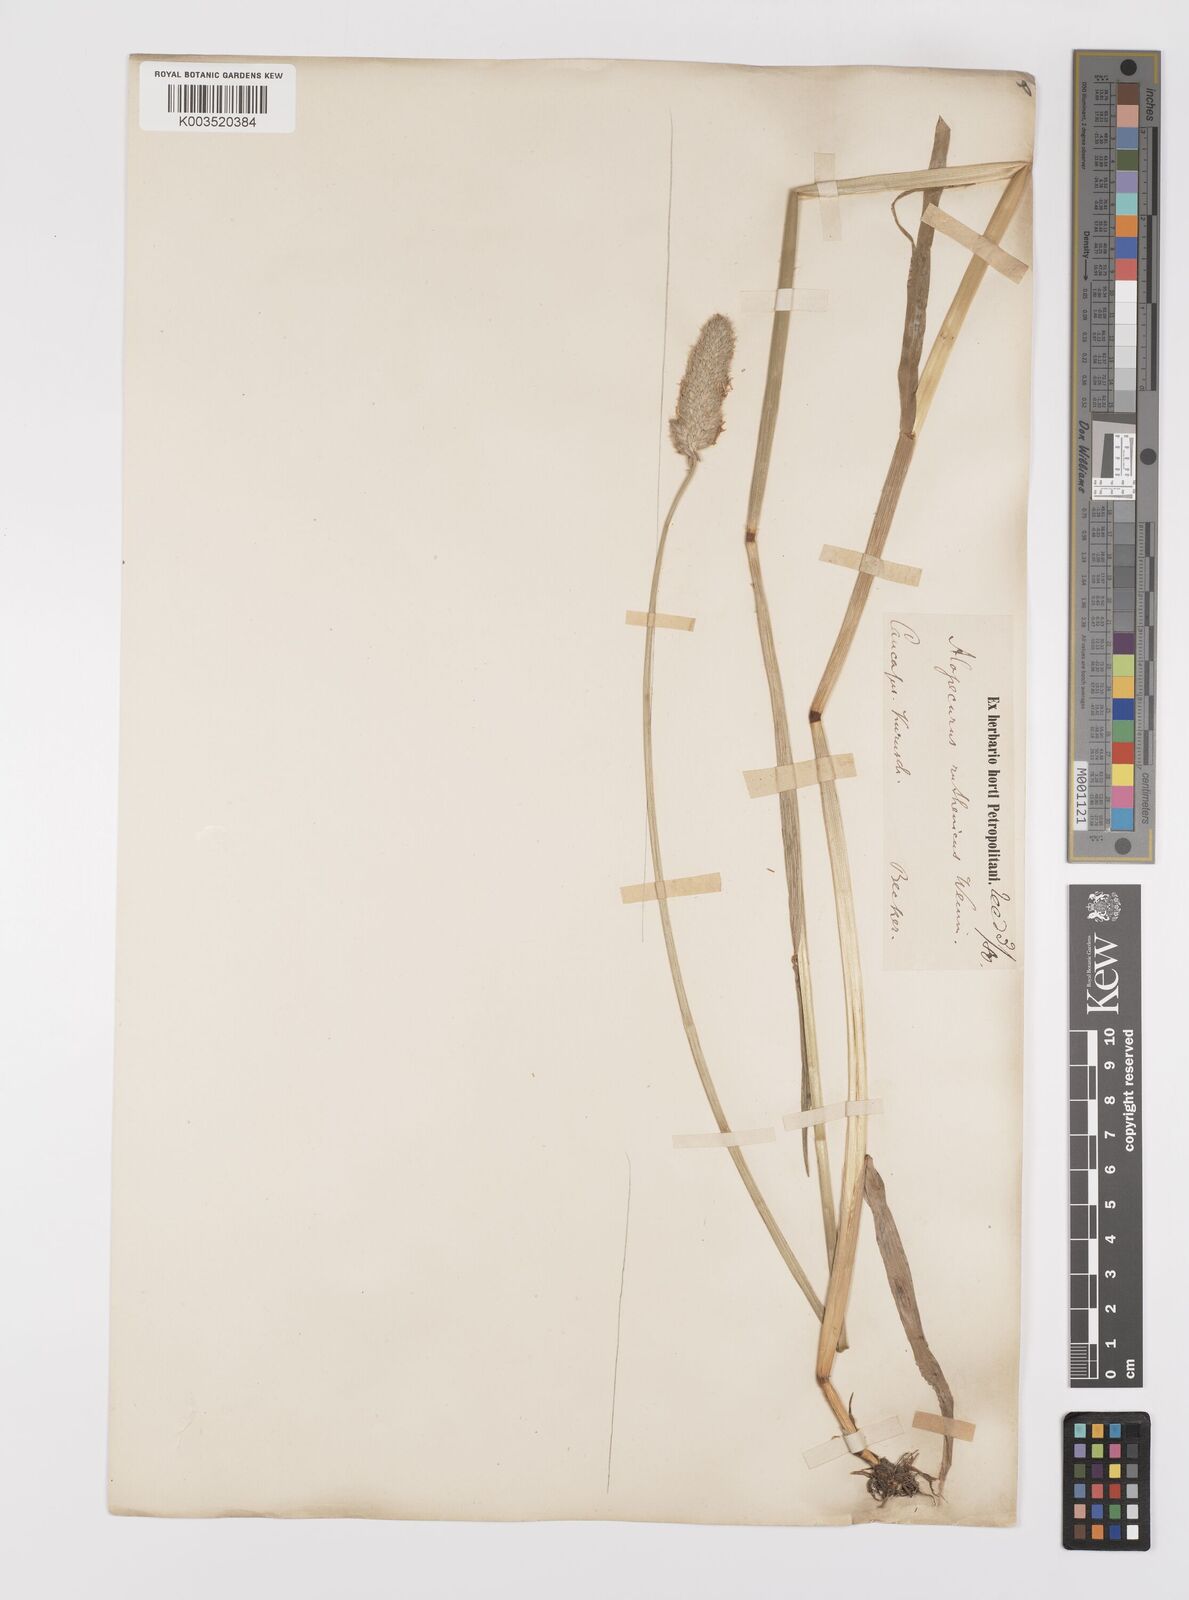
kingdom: Plantae
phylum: Tracheophyta
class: Liliopsida
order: Poales
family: Poaceae
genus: Alopecurus
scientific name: Alopecurus arundinaceus
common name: Creeping meadow foxtail
